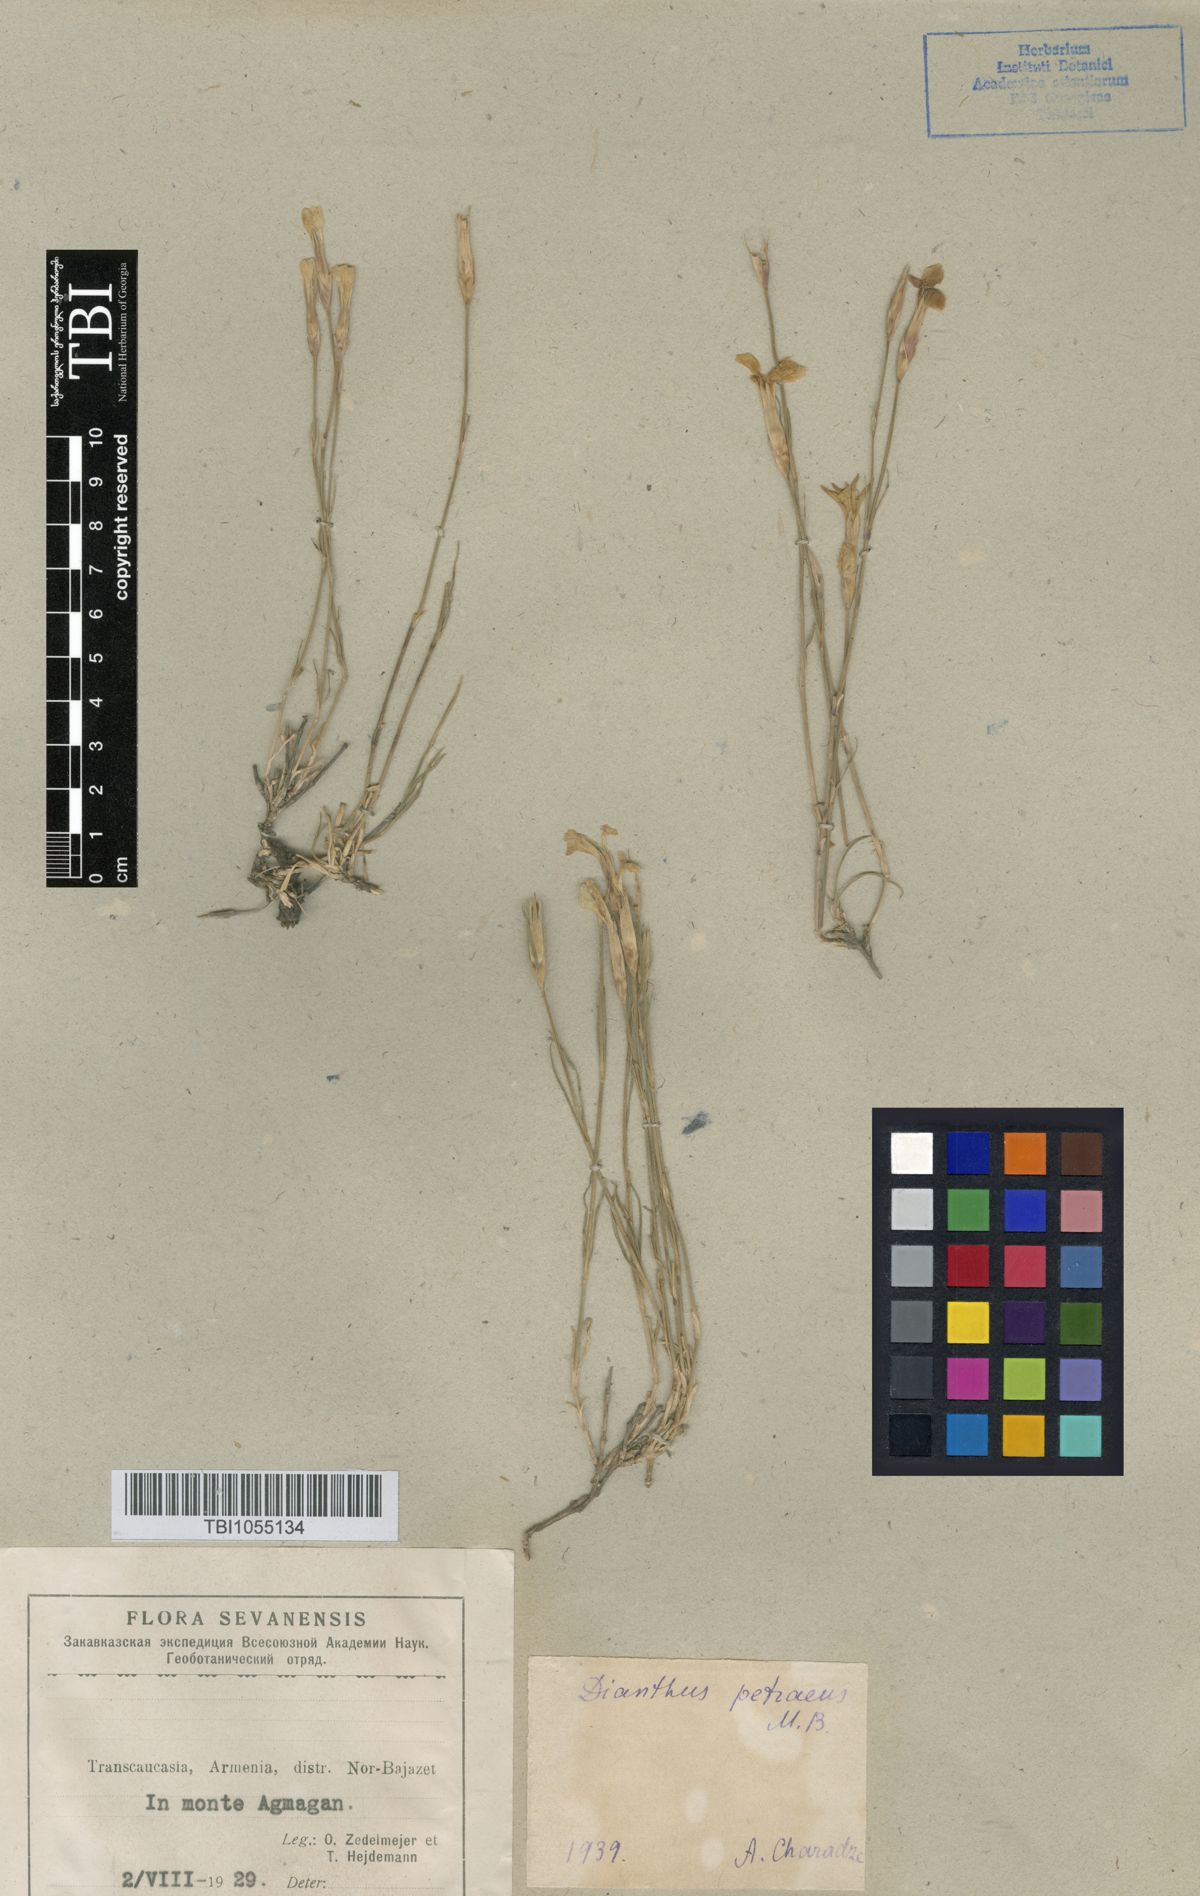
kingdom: Plantae
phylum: Tracheophyta
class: Magnoliopsida
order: Caryophyllales
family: Caryophyllaceae
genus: Dianthus
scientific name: Dianthus cretaceus
